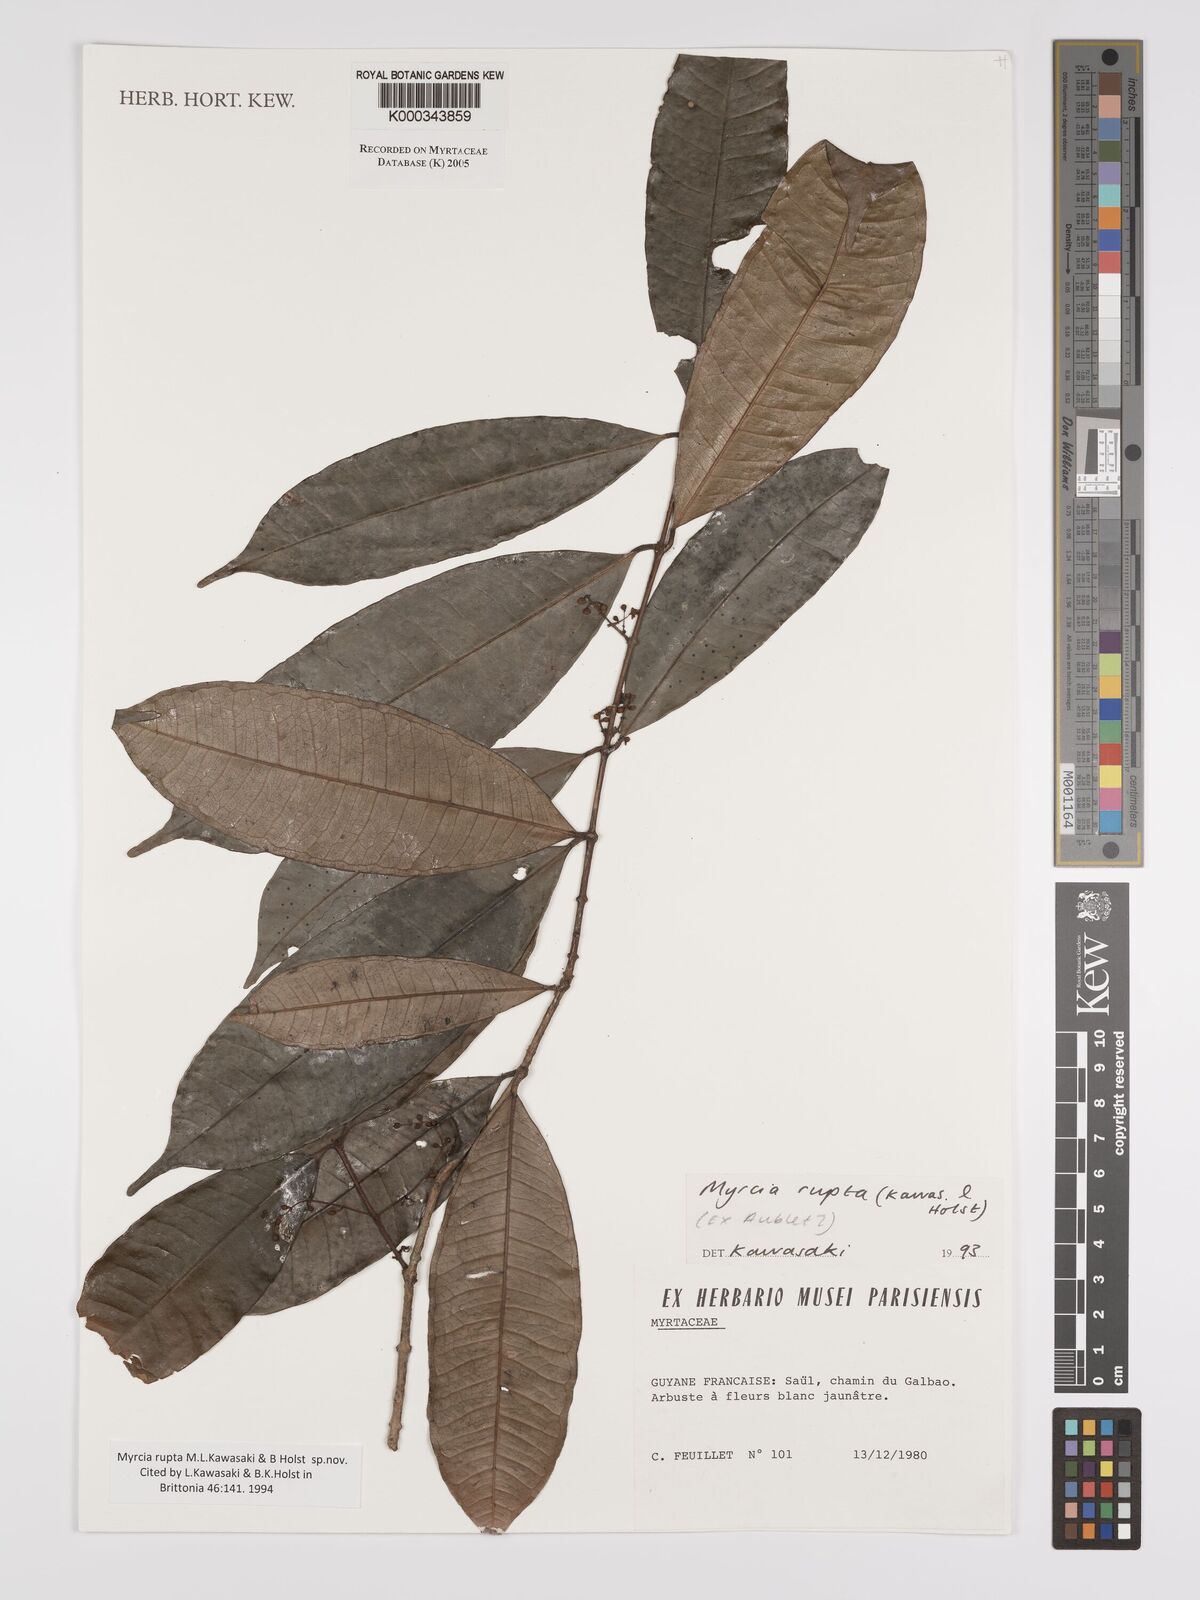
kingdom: Plantae
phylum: Tracheophyta
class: Magnoliopsida
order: Myrtales
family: Myrtaceae
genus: Myrcia
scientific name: Myrcia rupta
